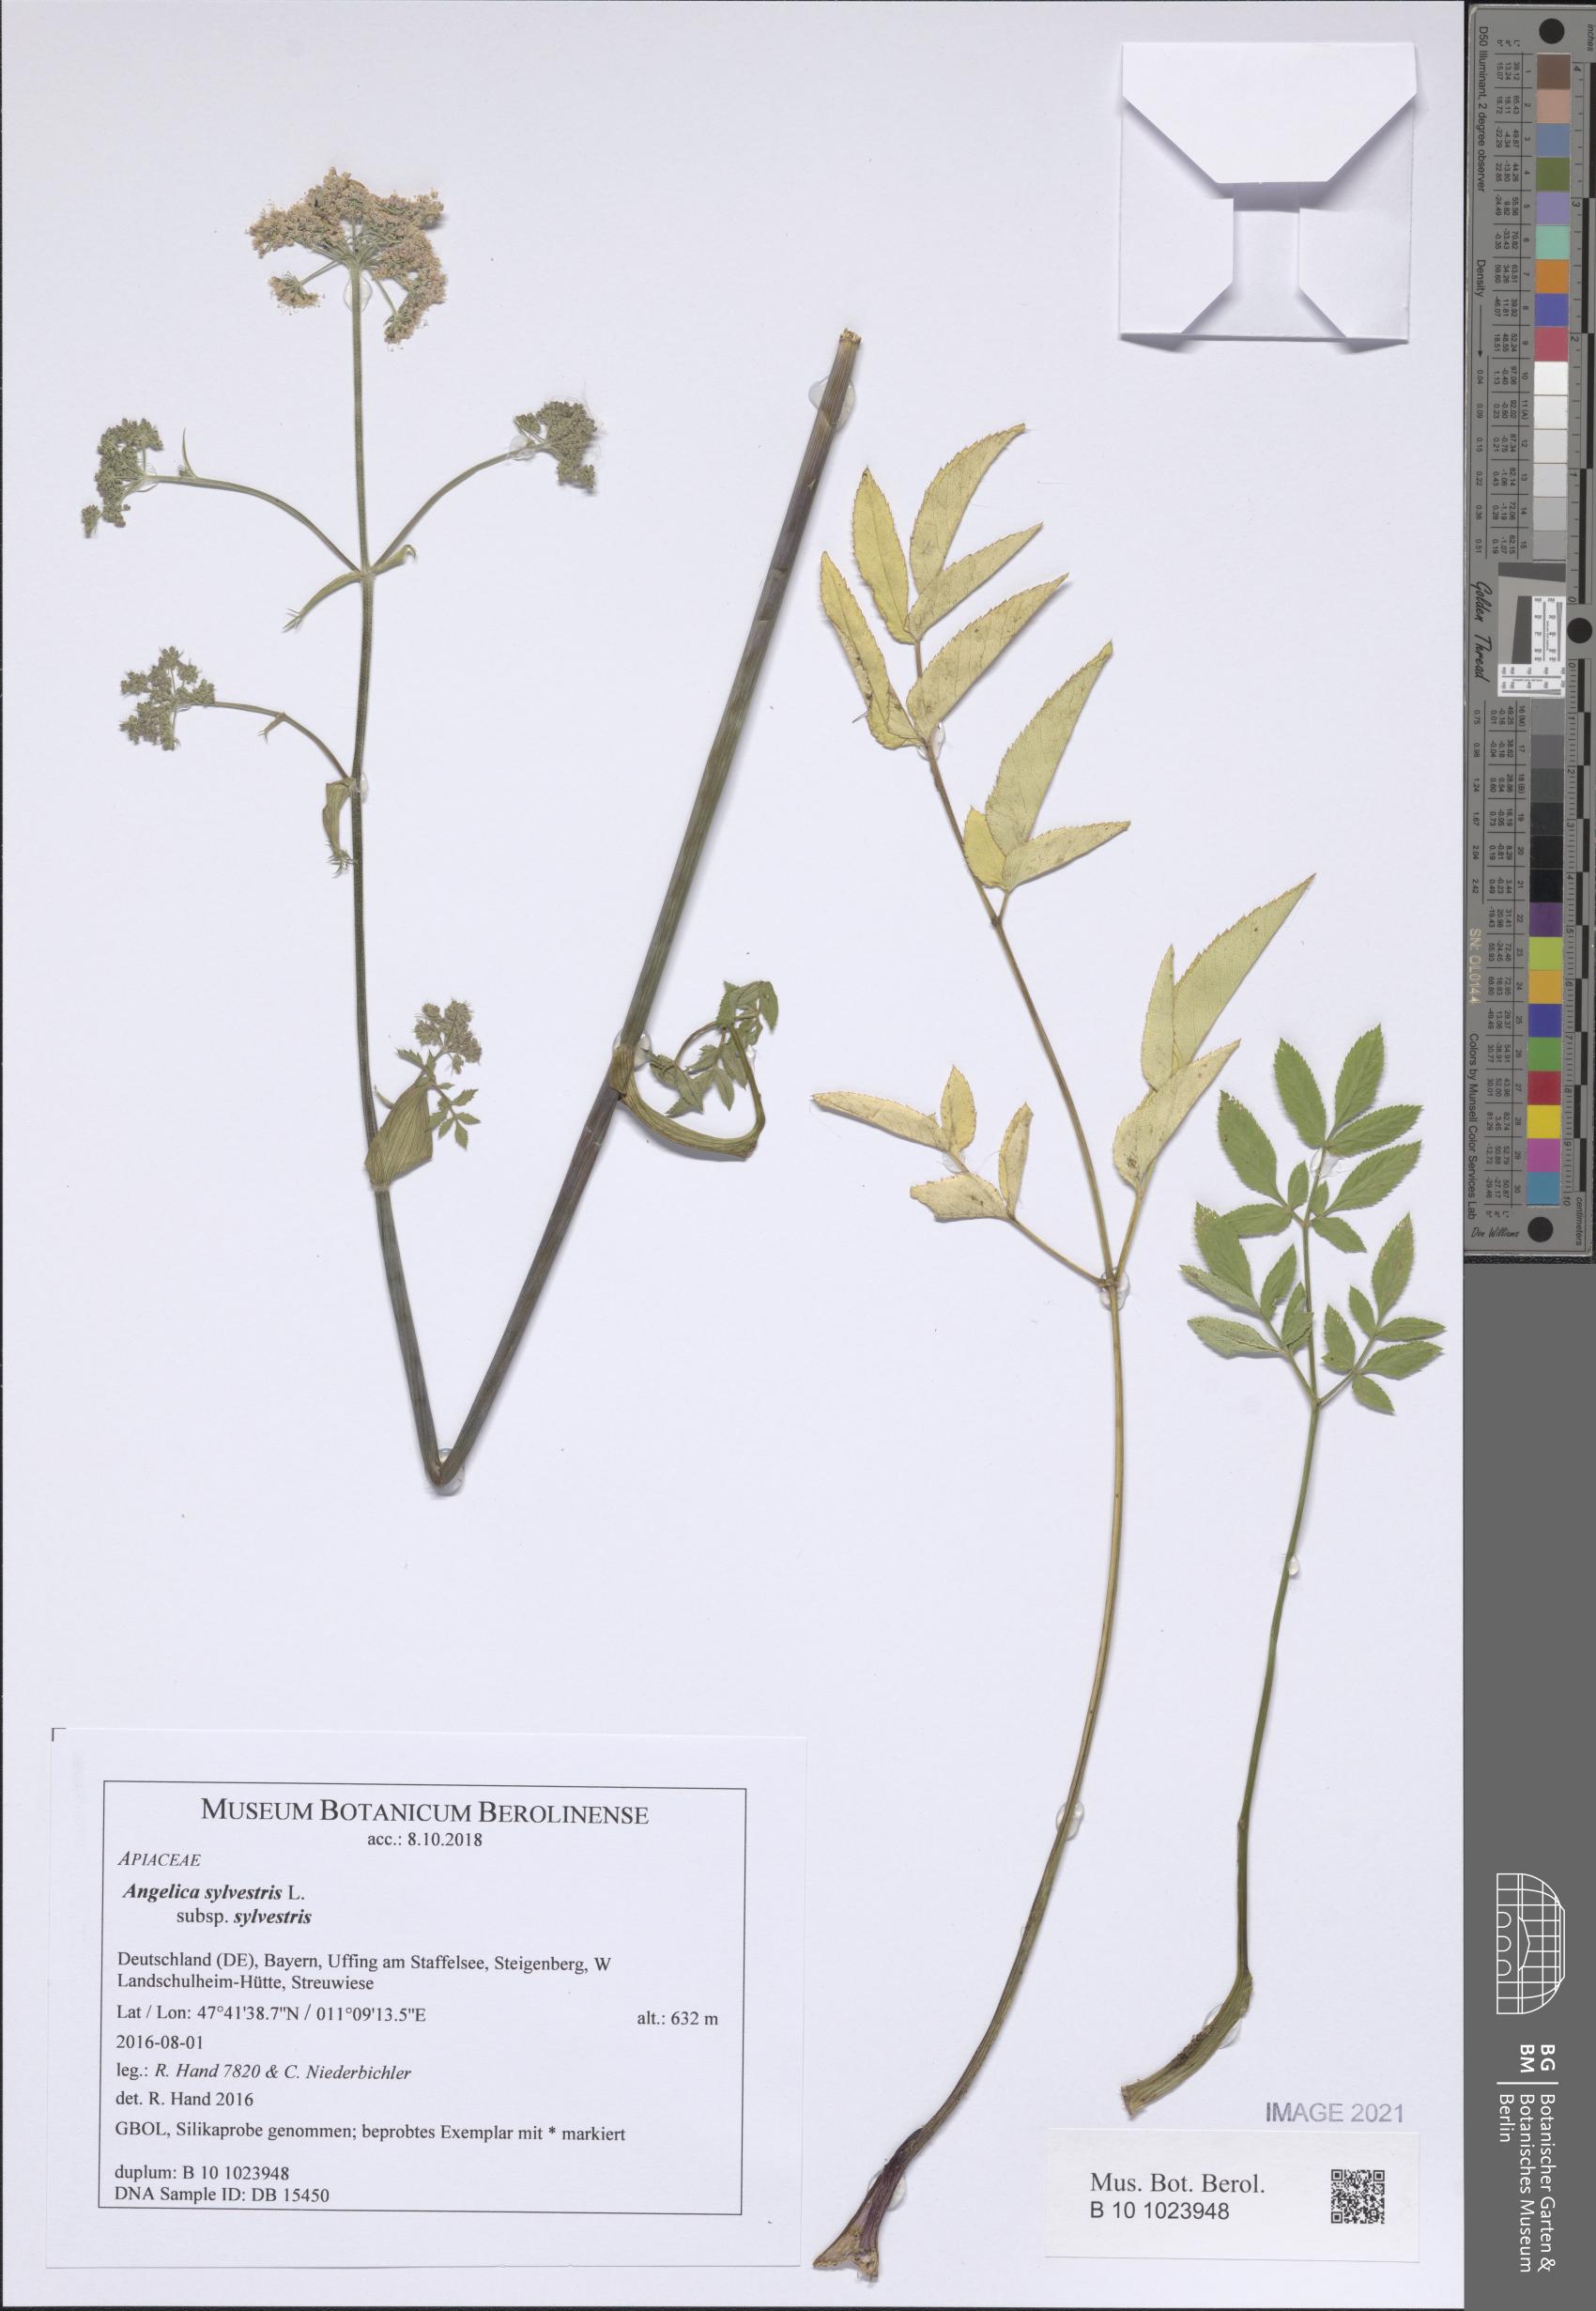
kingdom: Plantae
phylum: Tracheophyta
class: Magnoliopsida
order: Apiales
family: Apiaceae
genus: Angelica
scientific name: Angelica sylvestris
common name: Wild angelica
